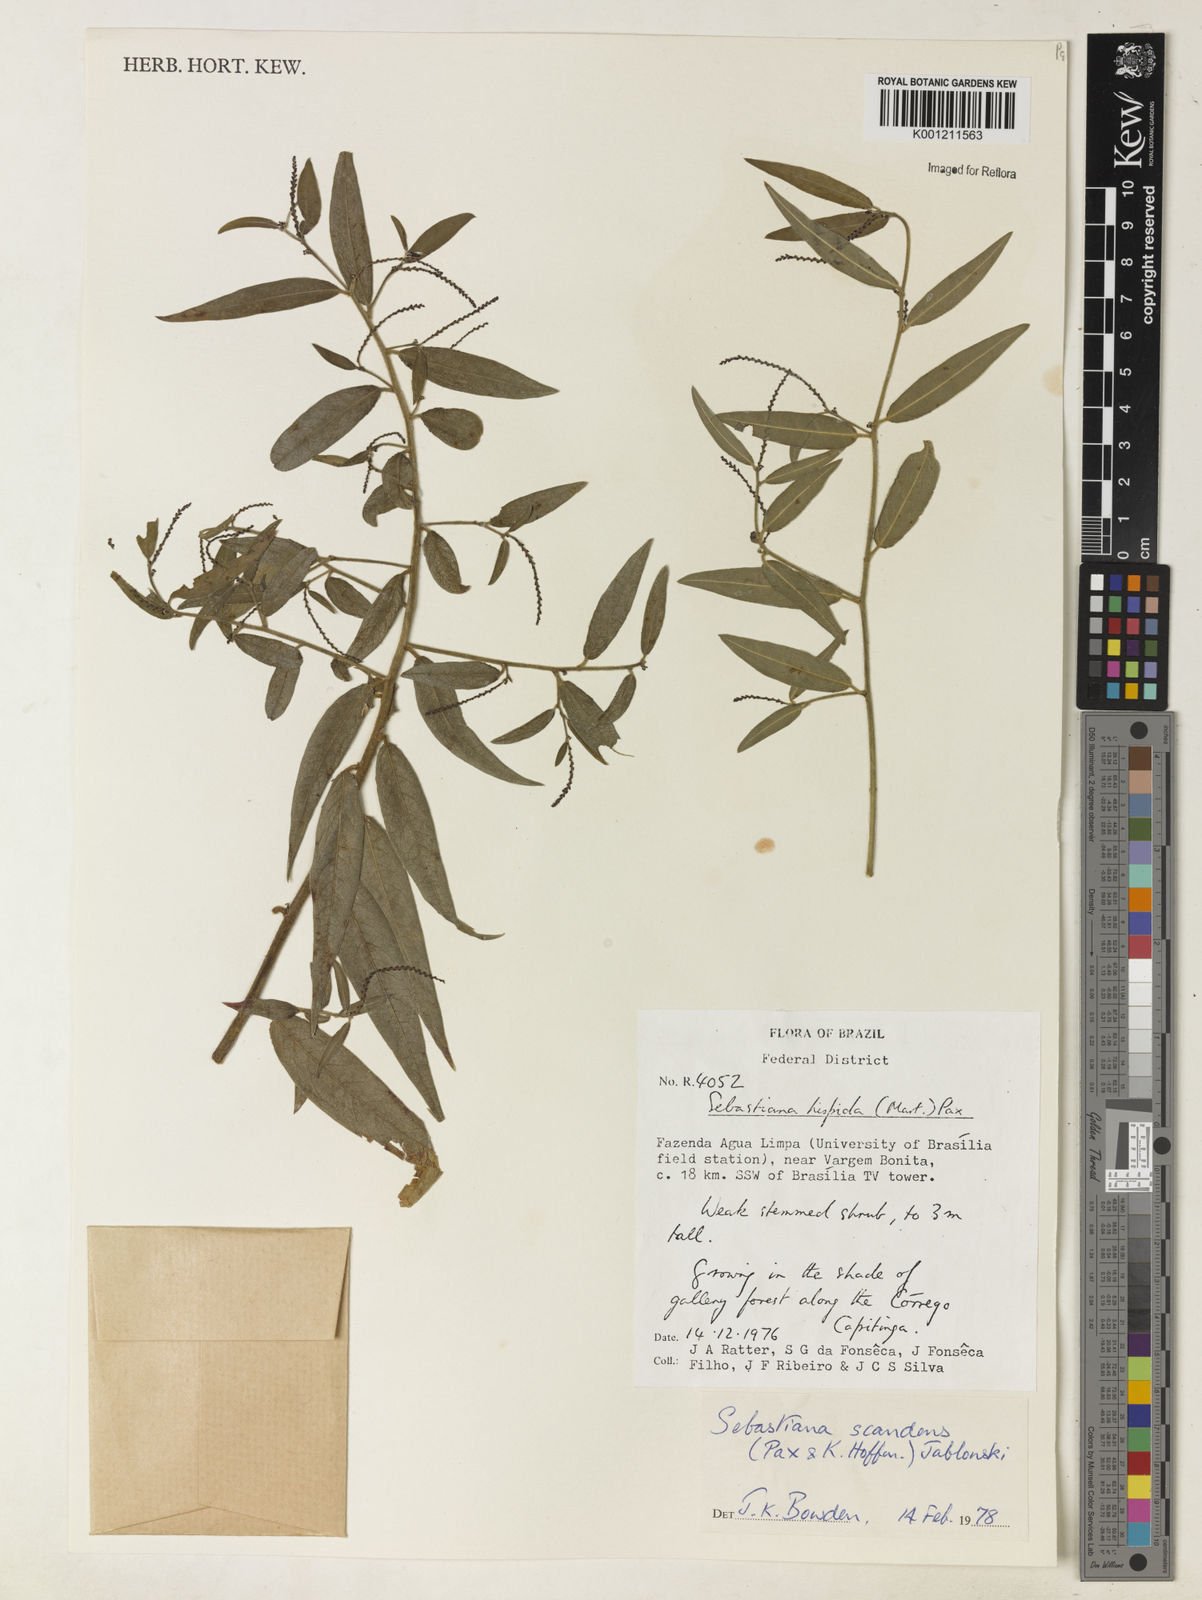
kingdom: Plantae
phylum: Tracheophyta
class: Magnoliopsida
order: Malpighiales
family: Euphorbiaceae
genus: Microstachys
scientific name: Microstachys hispida
